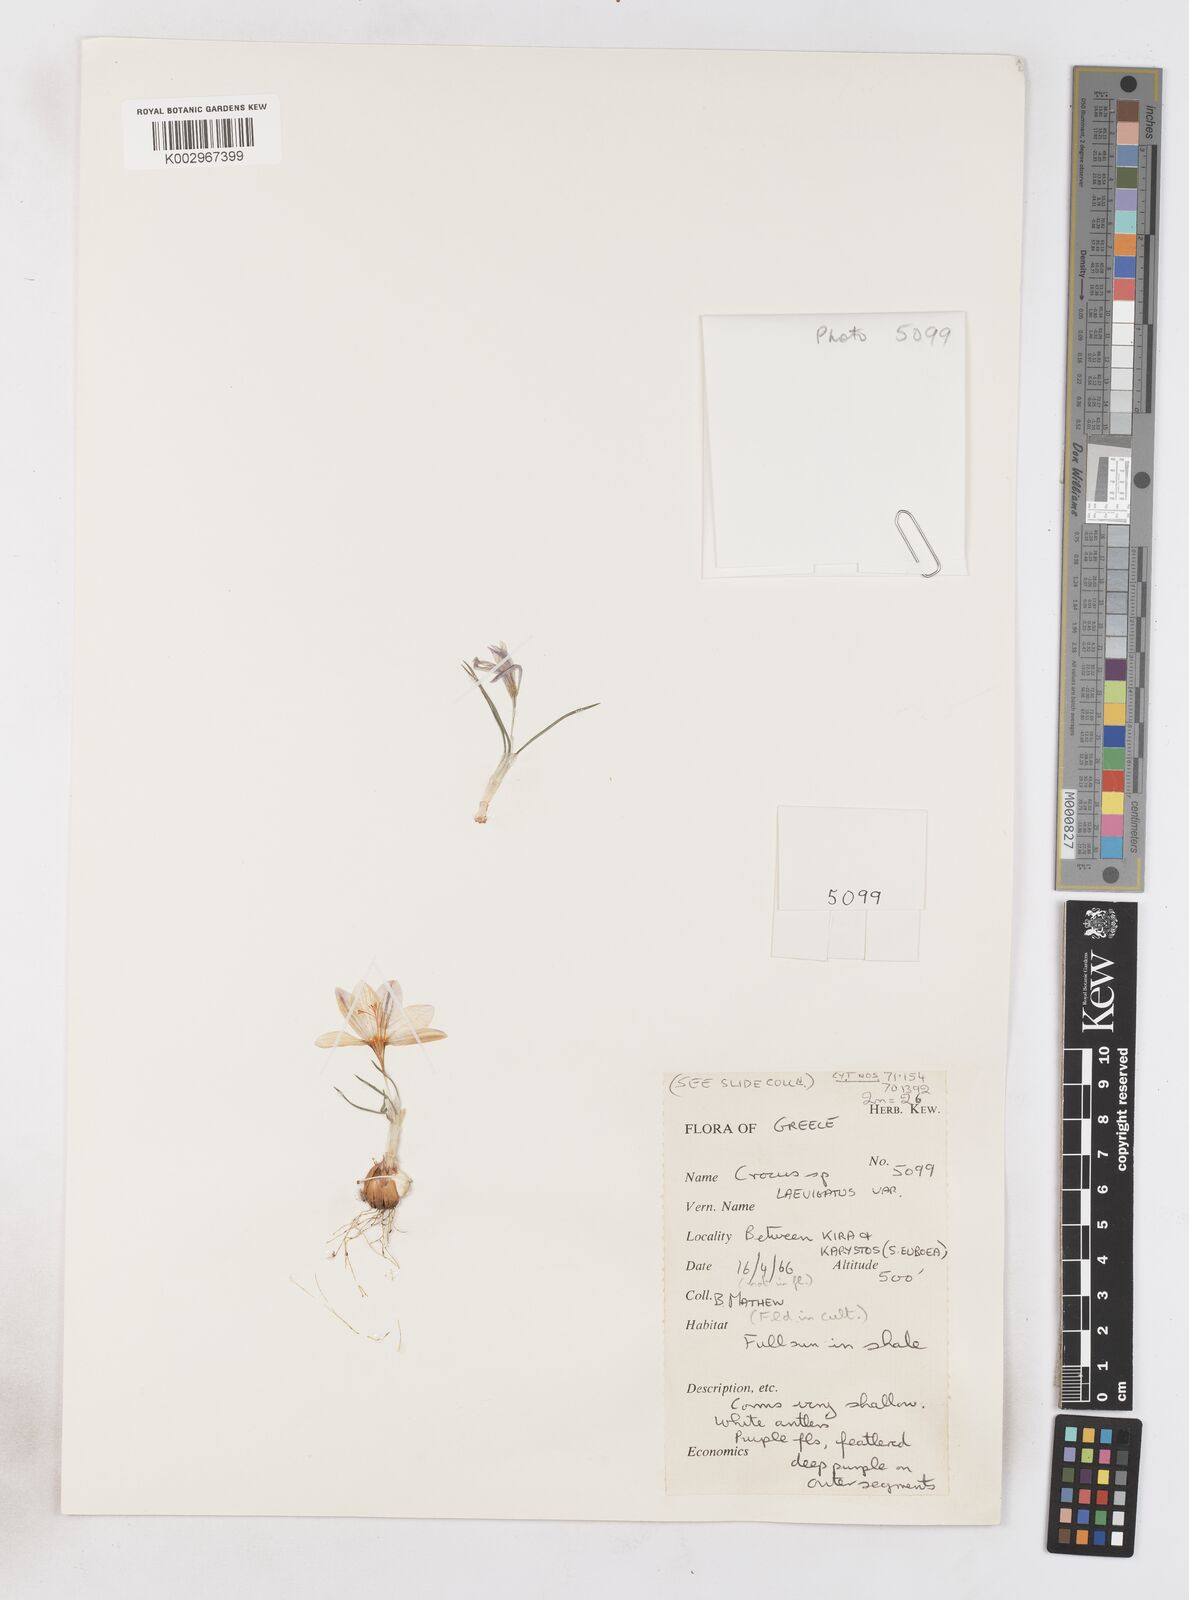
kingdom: Plantae
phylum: Tracheophyta
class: Liliopsida
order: Asparagales
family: Iridaceae
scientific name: Iridaceae
